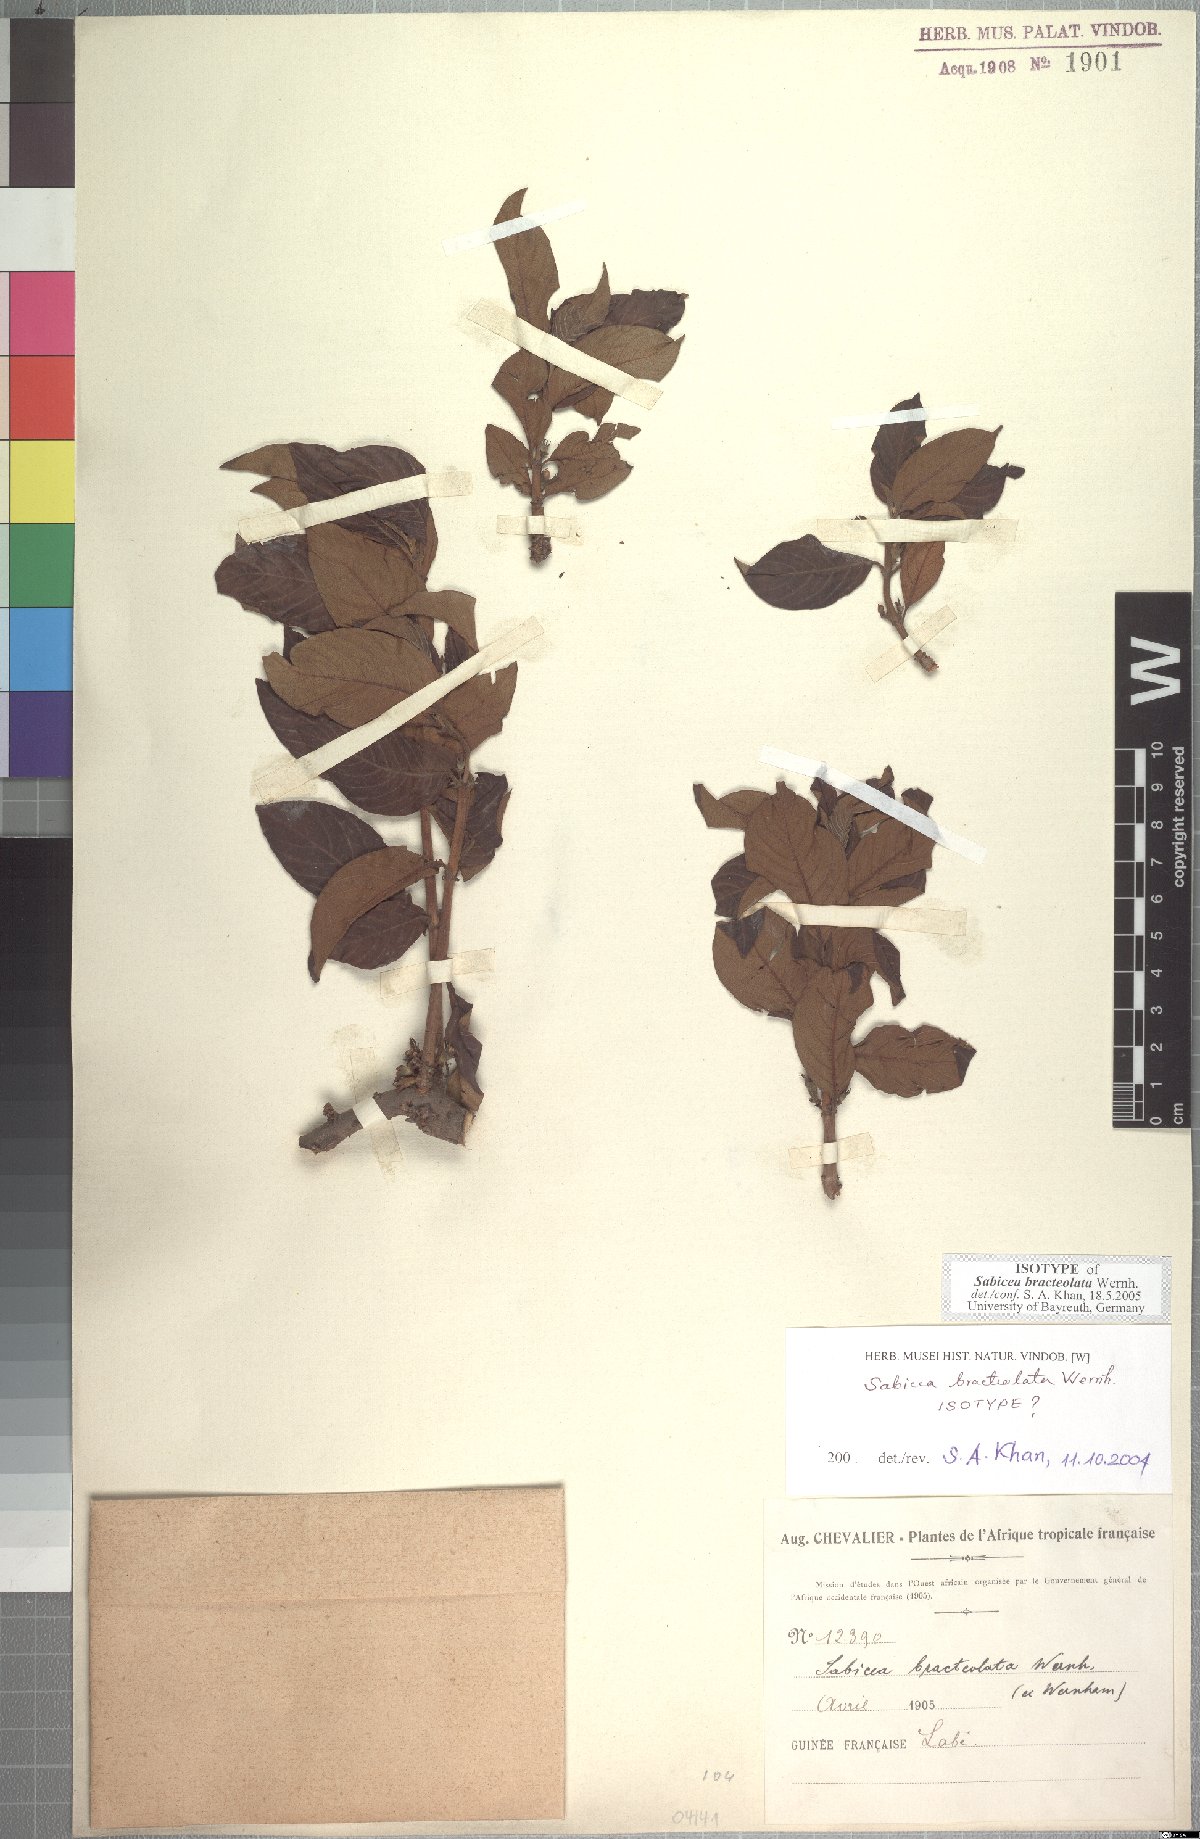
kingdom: Plantae
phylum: Tracheophyta
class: Magnoliopsida
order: Gentianales
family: Rubiaceae
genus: Sabicea
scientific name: Sabicea bracteolata
